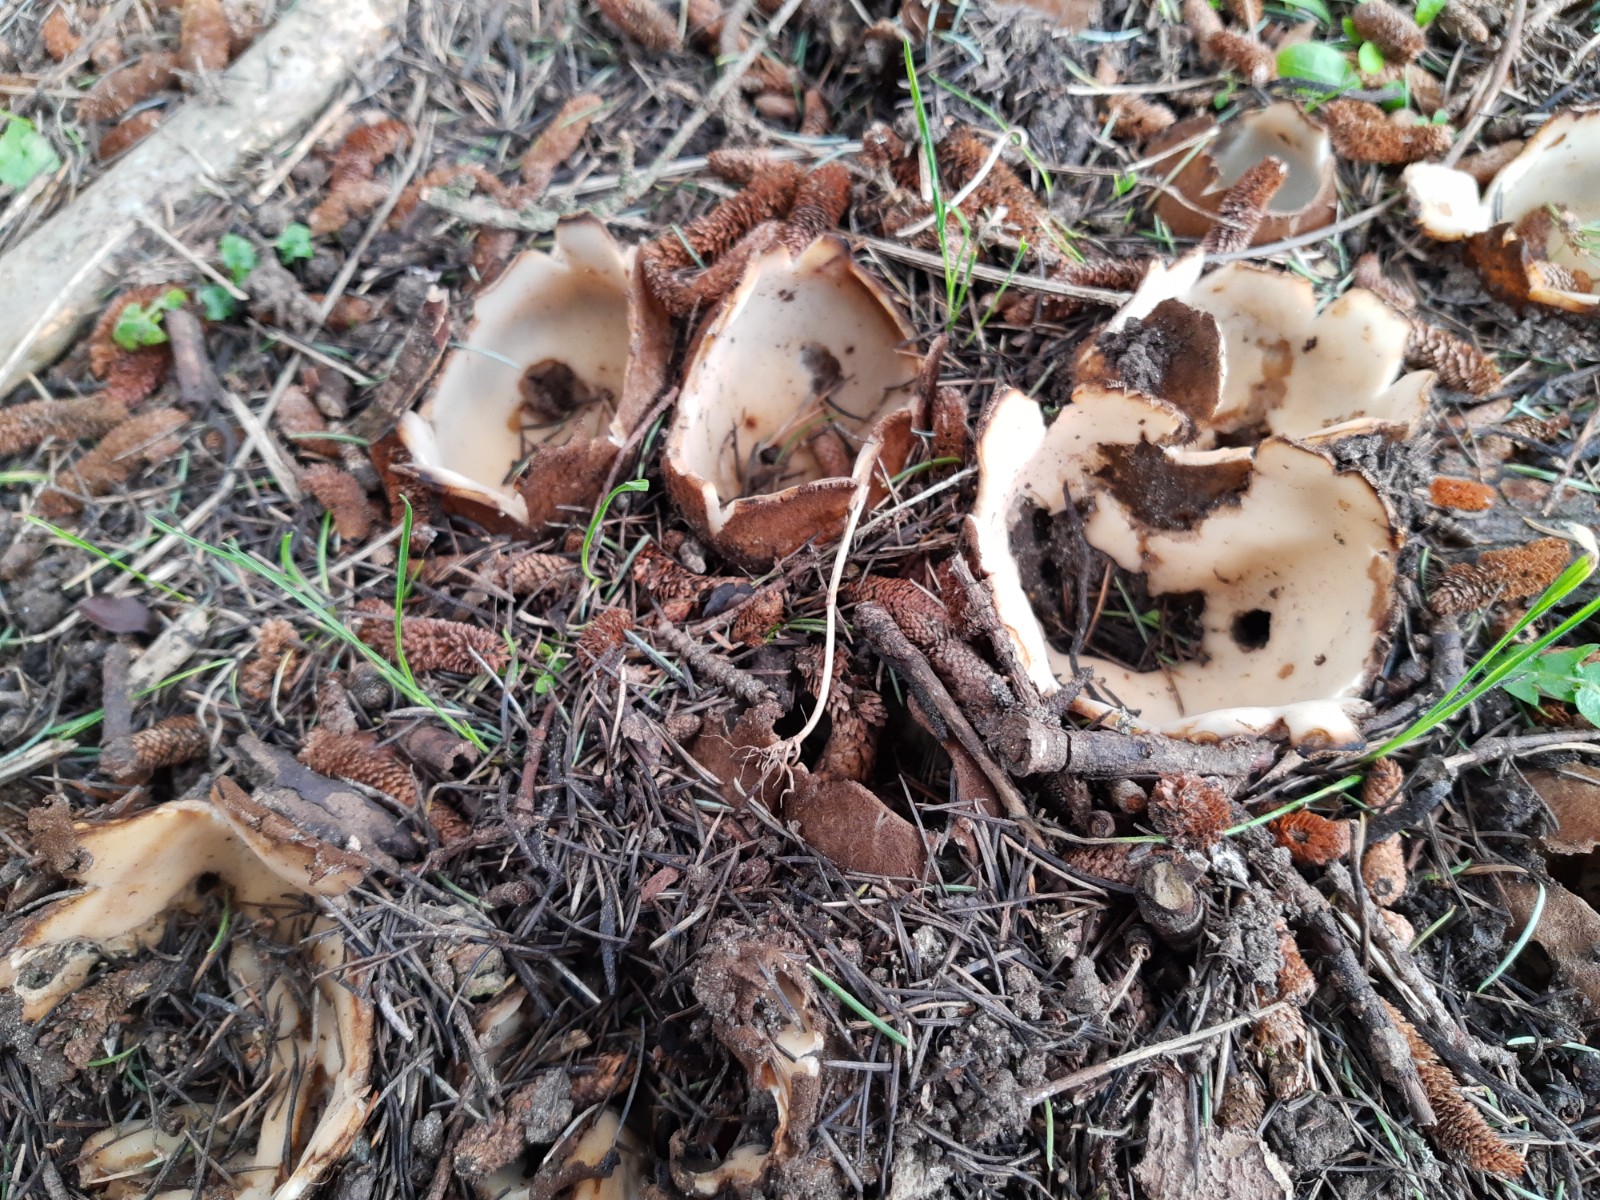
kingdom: Fungi
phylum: Ascomycota
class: Pezizomycetes
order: Pezizales
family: Pyronemataceae
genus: Geopora
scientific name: Geopora sumneriana
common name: vår-jordbæger
